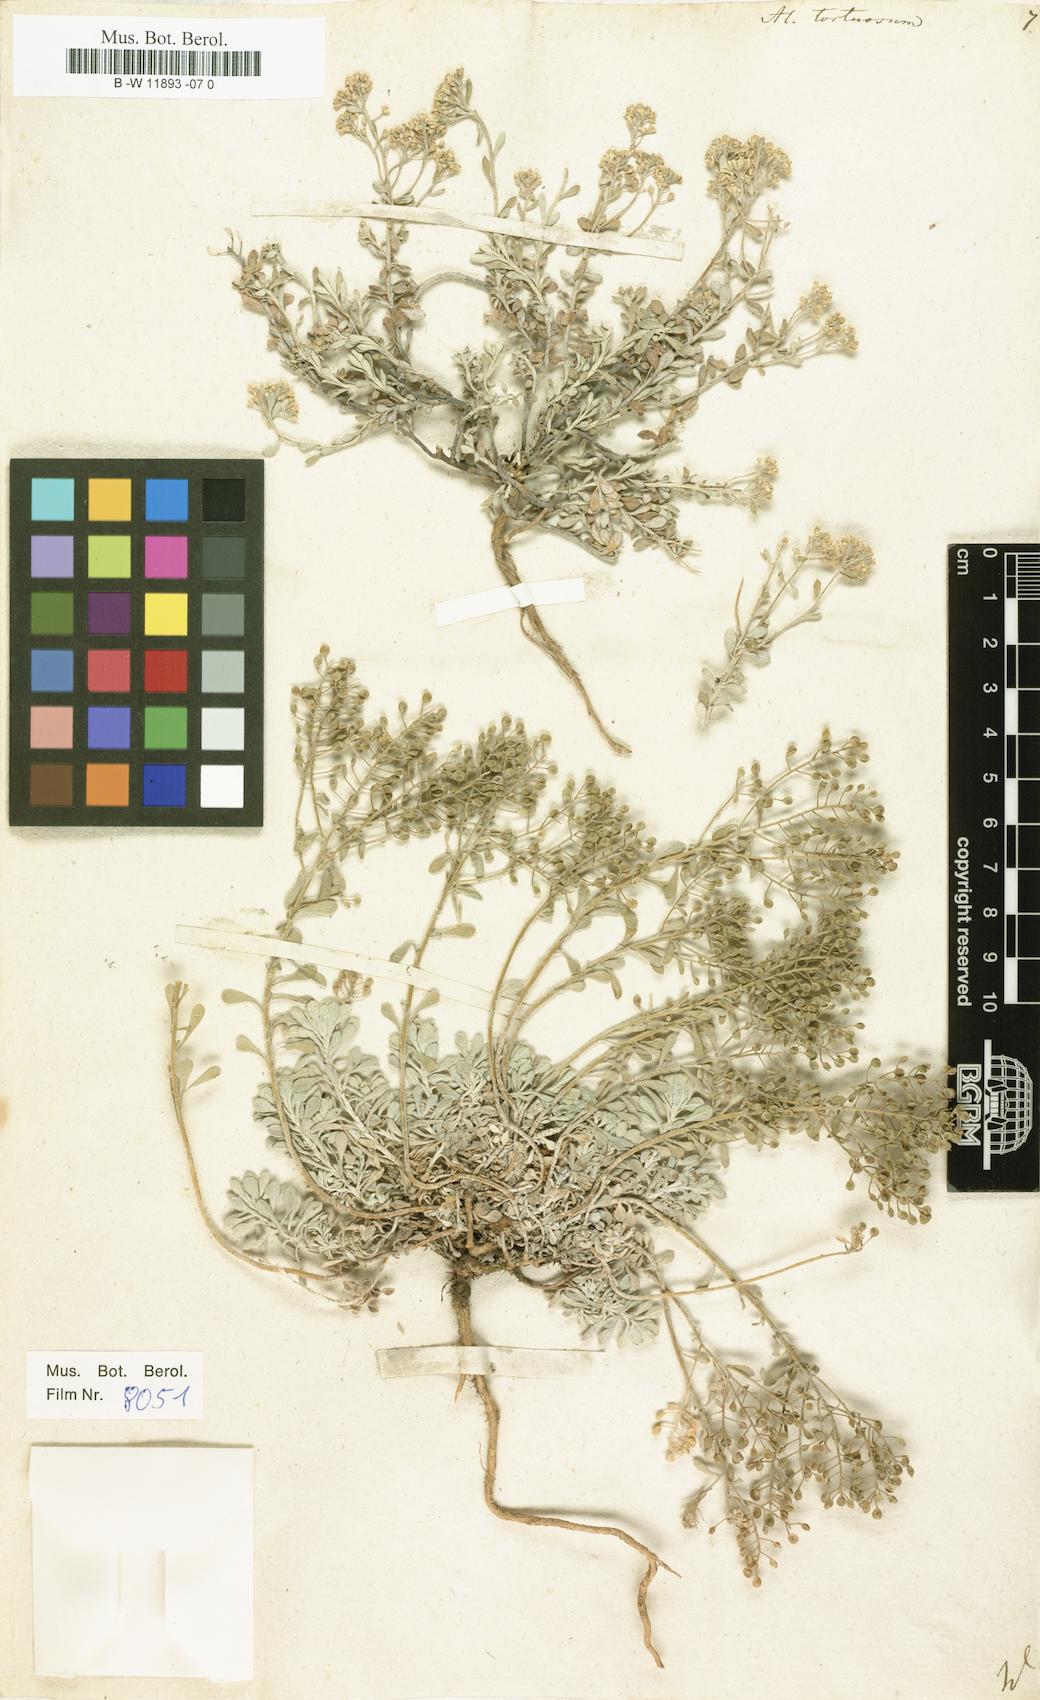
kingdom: Plantae
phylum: Tracheophyta
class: Magnoliopsida
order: Brassicales
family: Brassicaceae
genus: Odontarrhena
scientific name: Odontarrhena tortuosa
